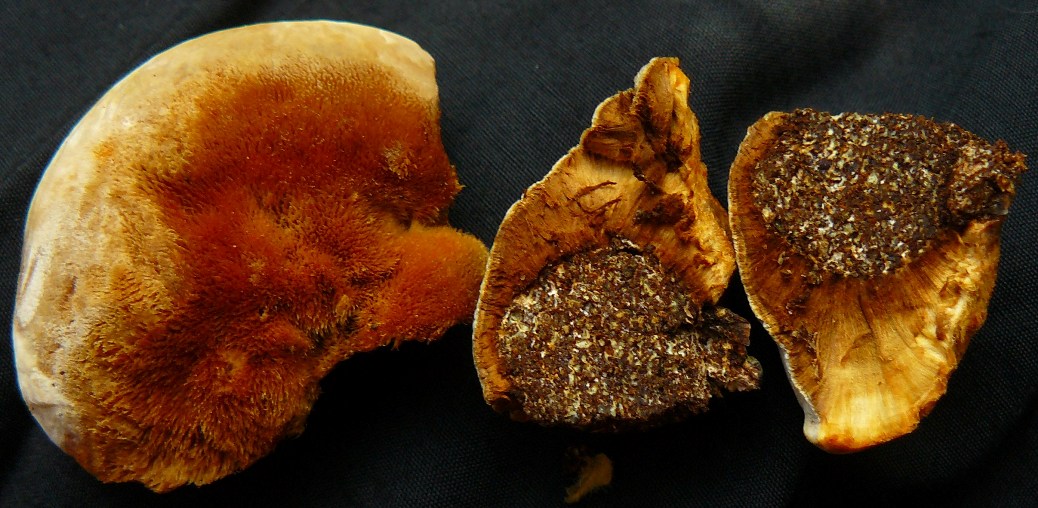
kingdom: Fungi
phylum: Basidiomycota
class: Agaricomycetes
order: Hymenochaetales
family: Hymenochaetaceae
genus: Inocutis
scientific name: Inocutis rheades
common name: ræve-spejlporesvamp
